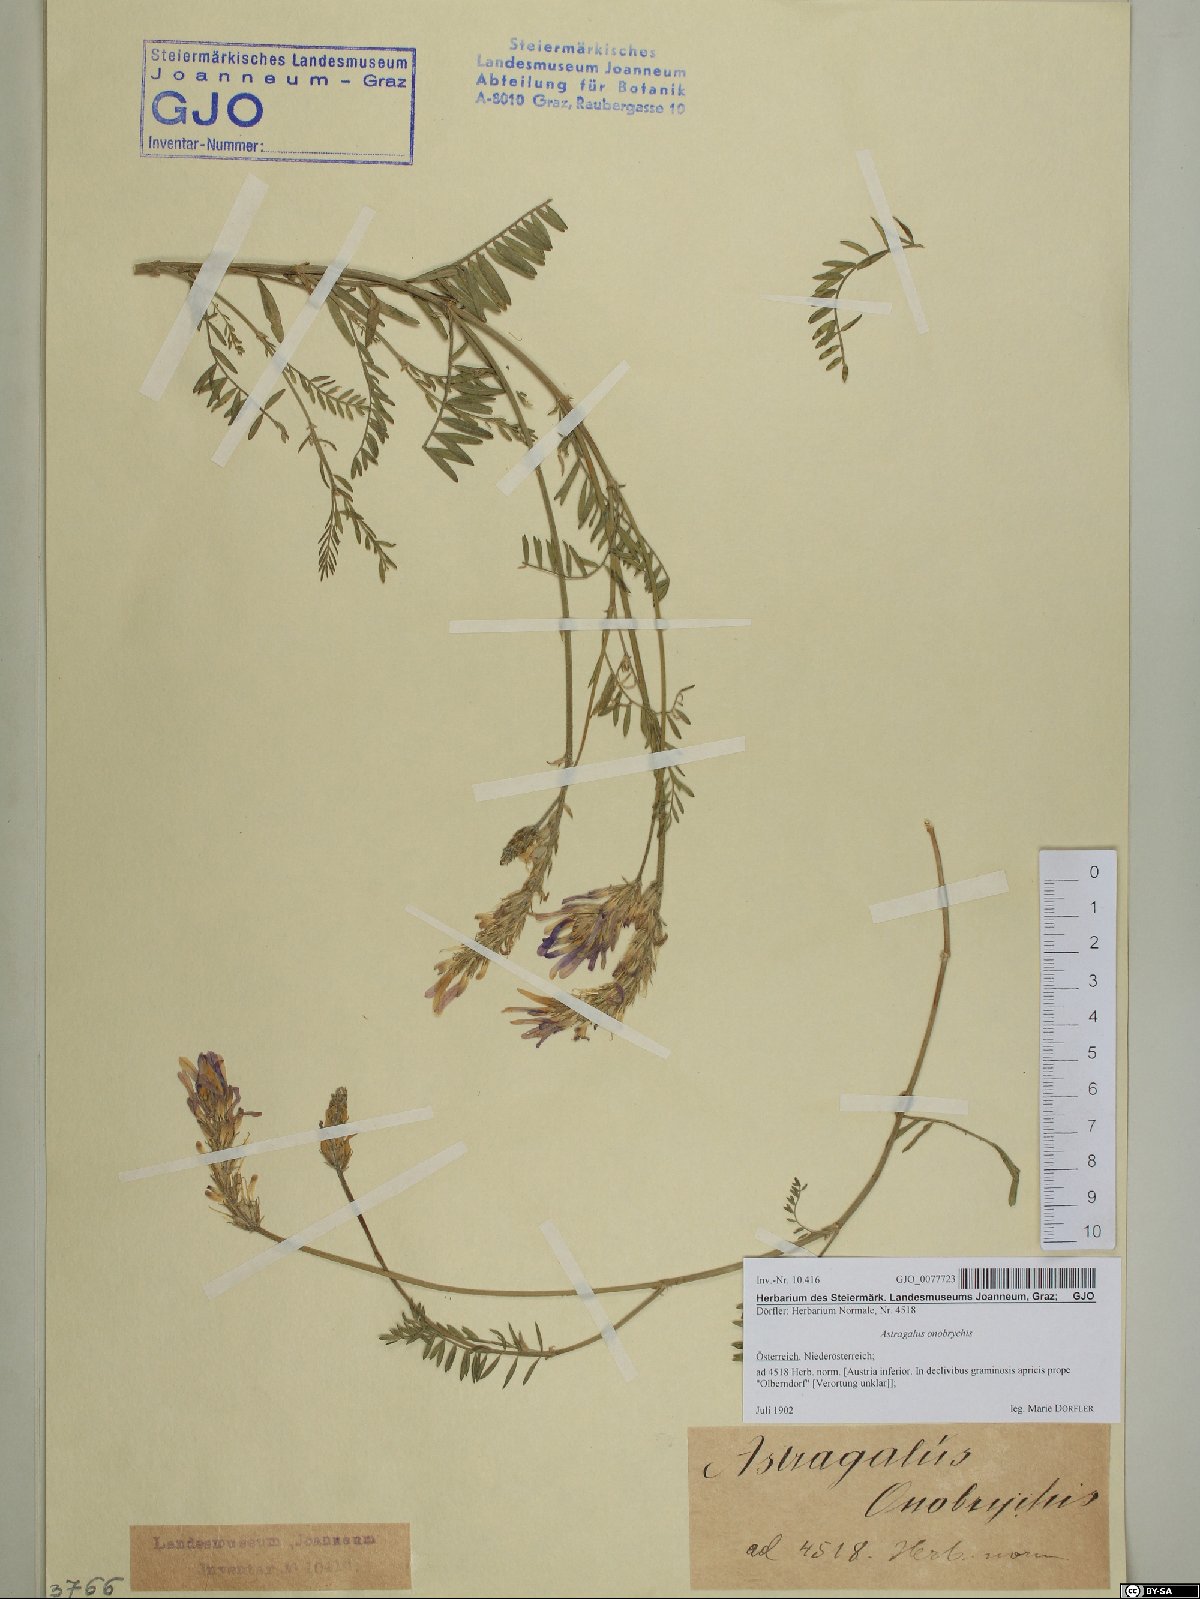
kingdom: Plantae
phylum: Tracheophyta
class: Magnoliopsida
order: Fabales
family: Fabaceae
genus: Astragalus
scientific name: Astragalus onobrychis
